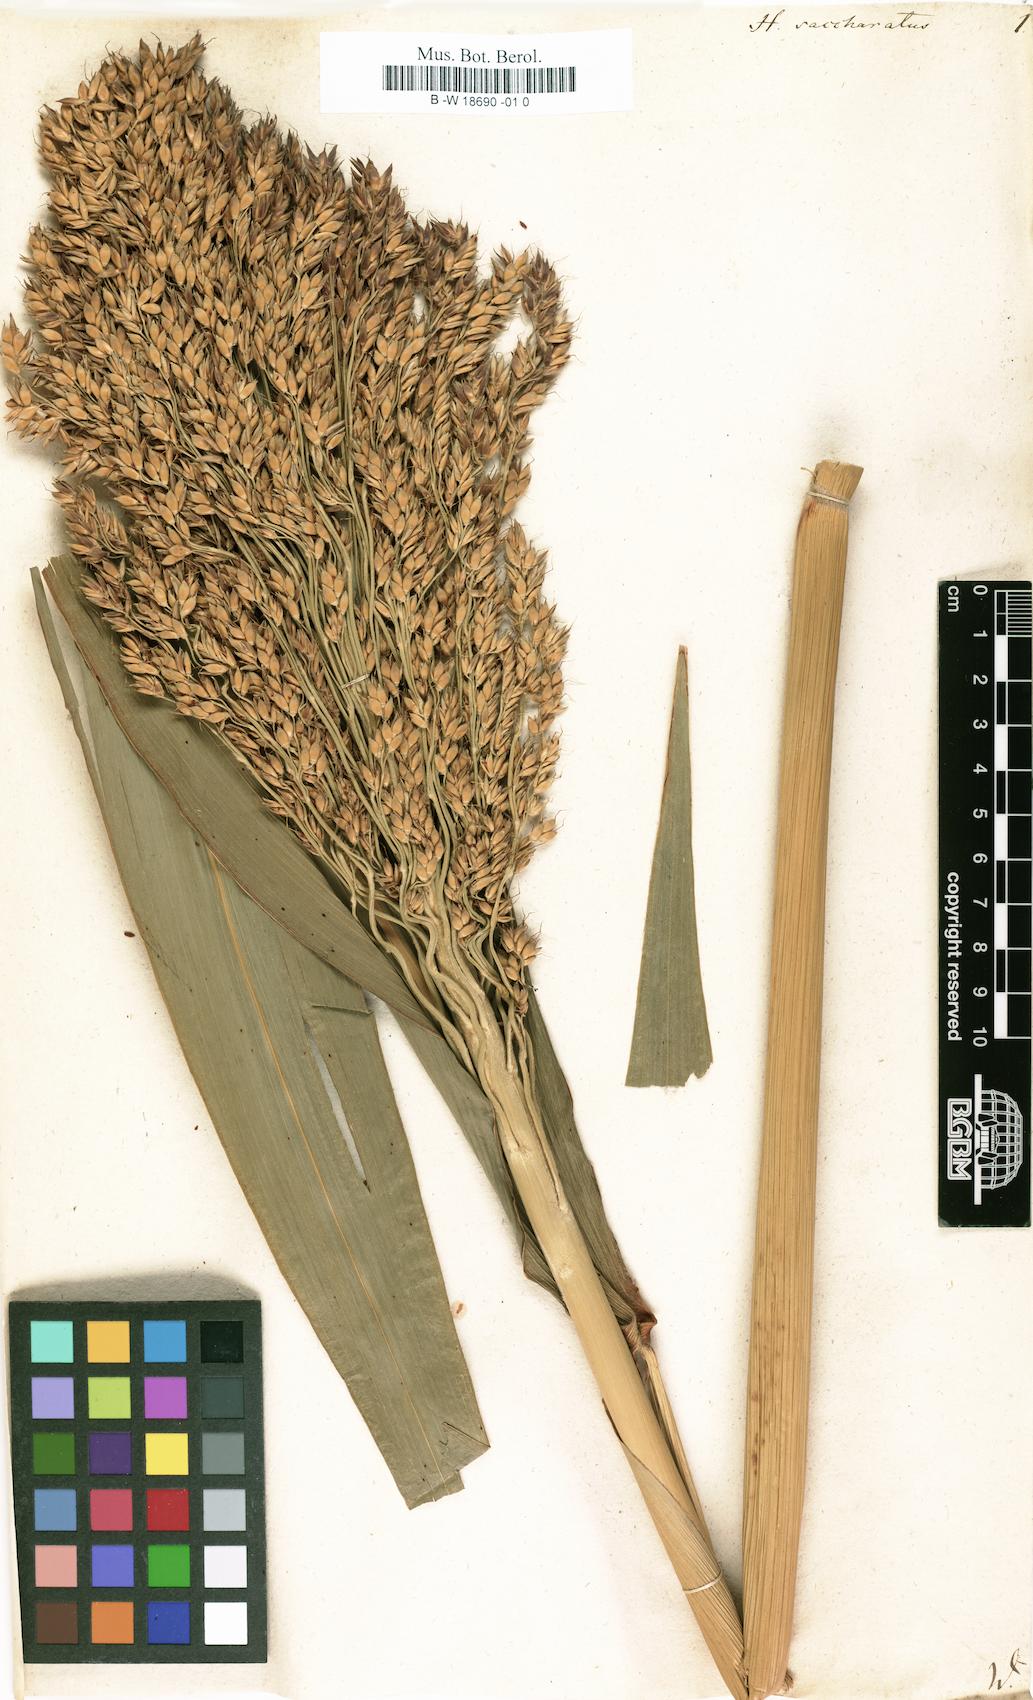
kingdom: Plantae
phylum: Tracheophyta
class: Liliopsida
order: Poales
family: Poaceae
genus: Sorghum
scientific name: Sorghum bicolor
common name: Sorghum
